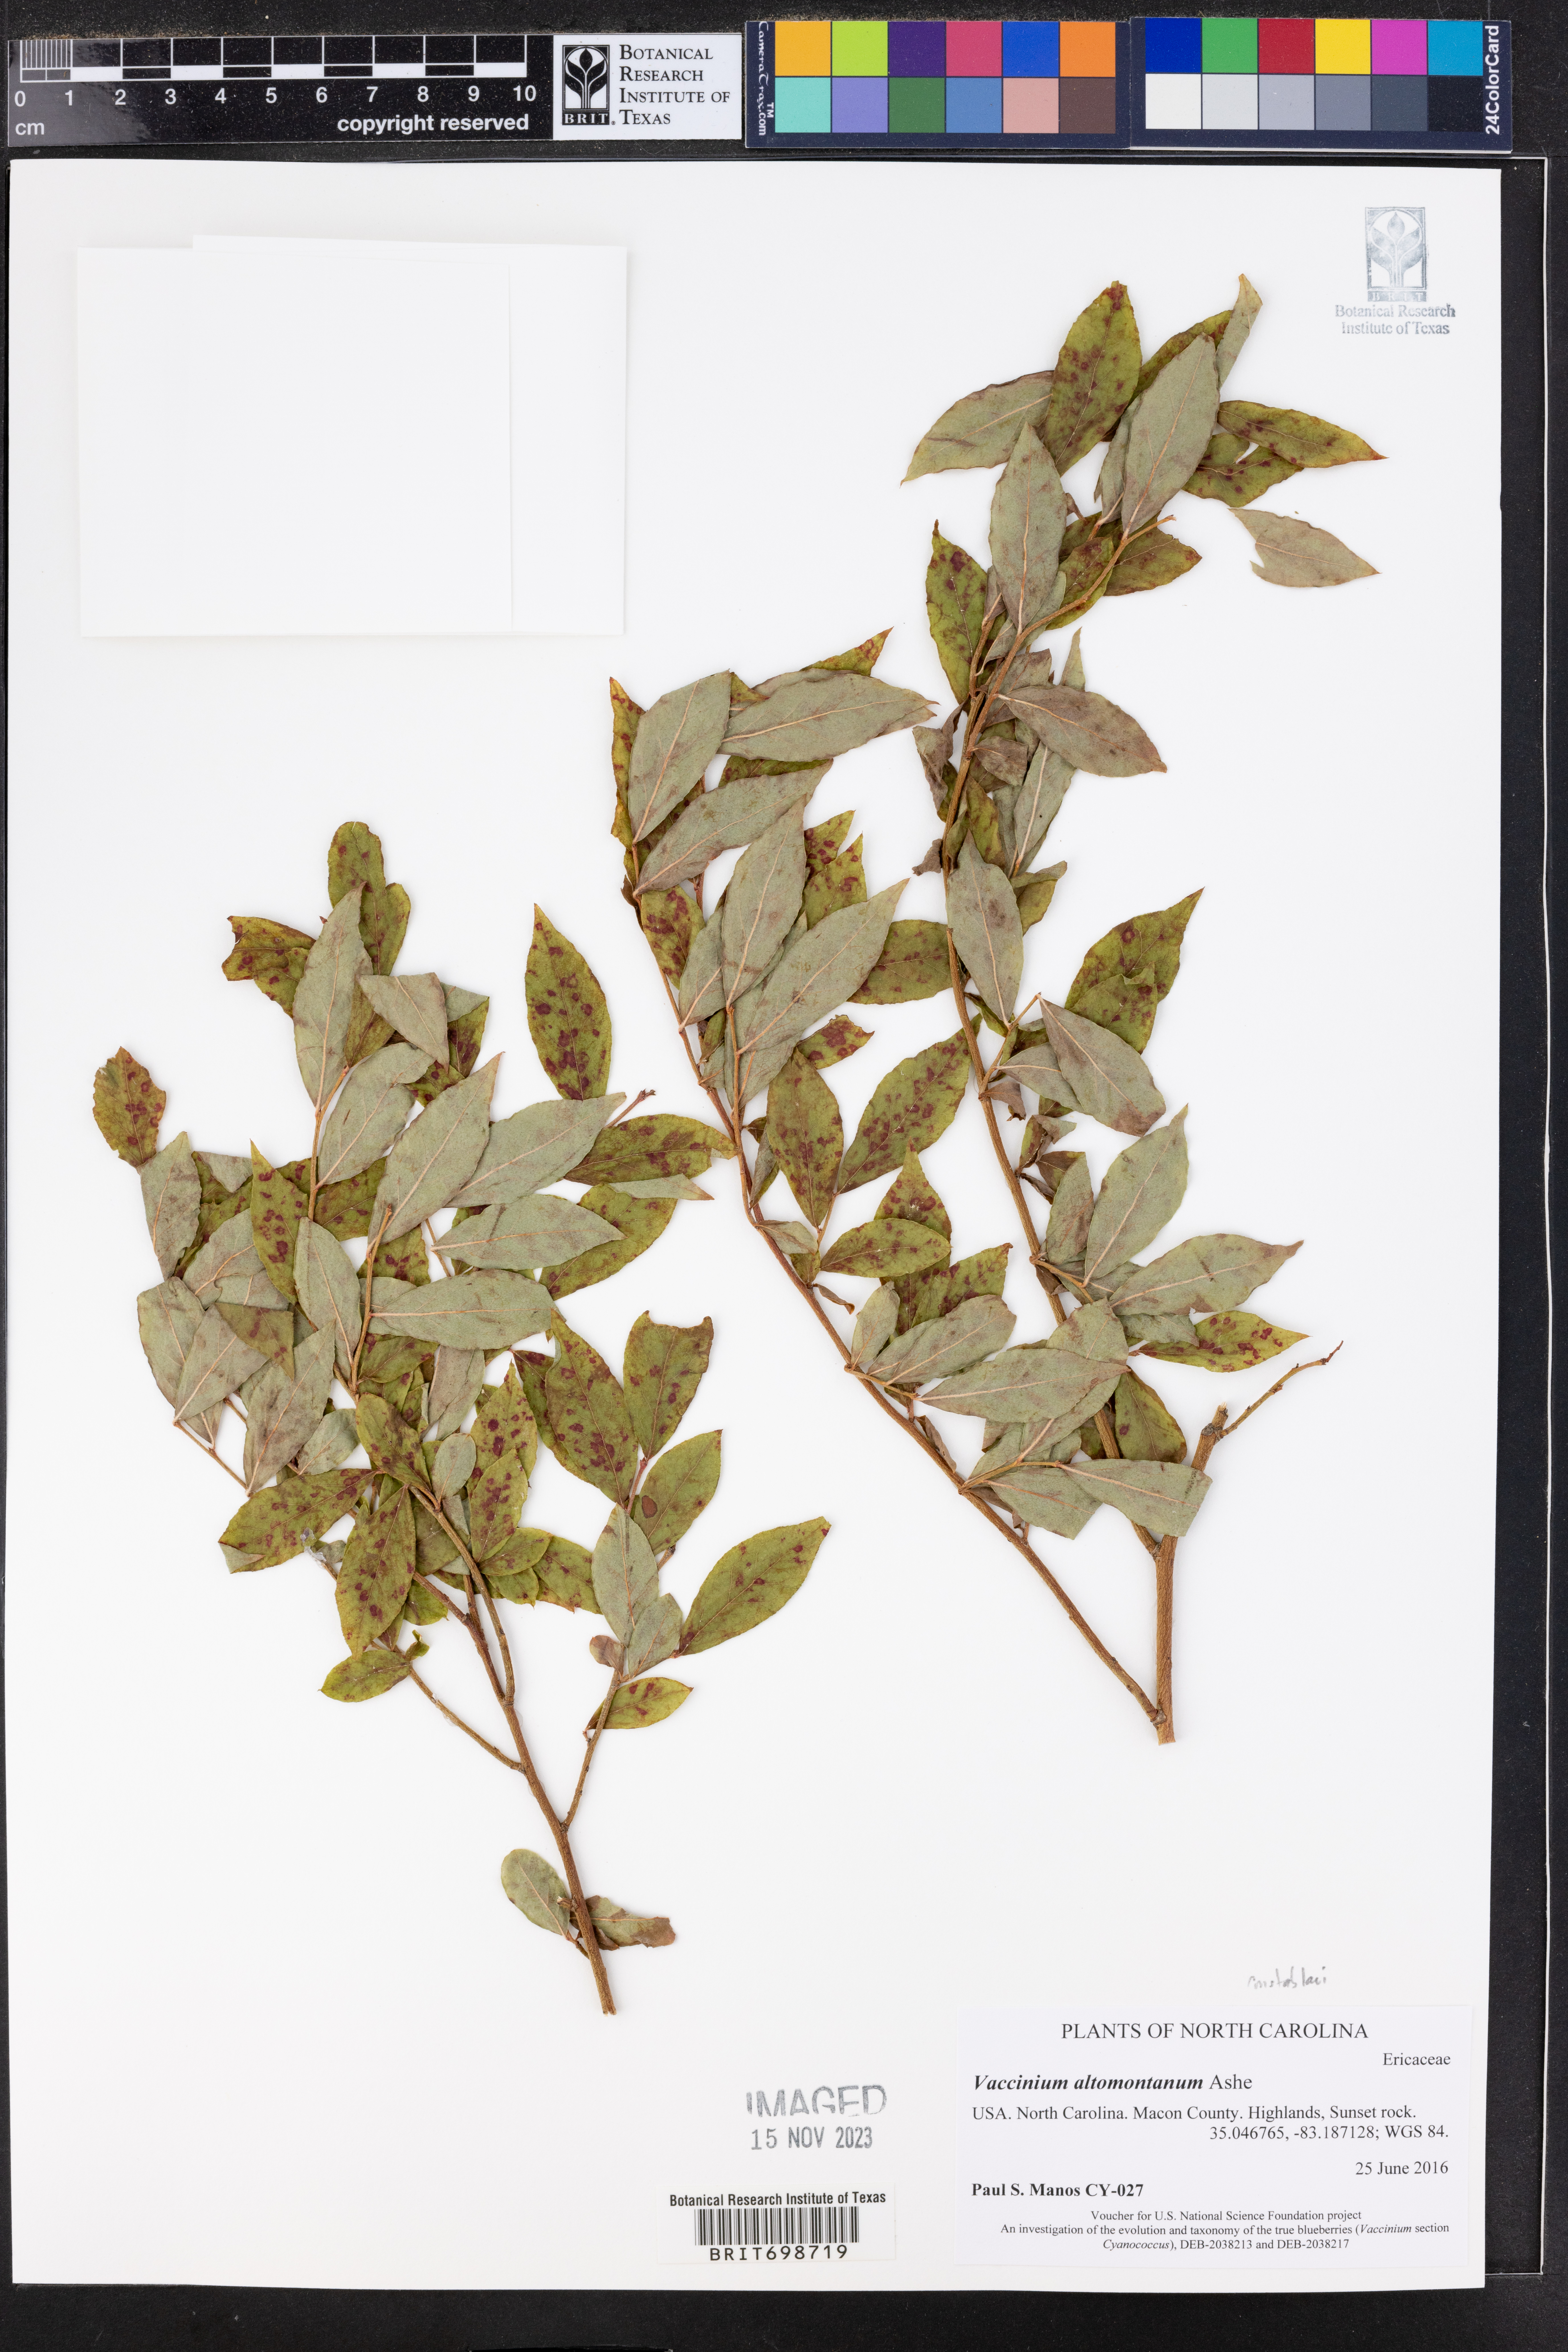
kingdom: Plantae
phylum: Tracheophyta
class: Magnoliopsida
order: Ericales
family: Ericaceae
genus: Vaccinium
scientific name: Vaccinium pallidum
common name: Blue ridge blueberry
